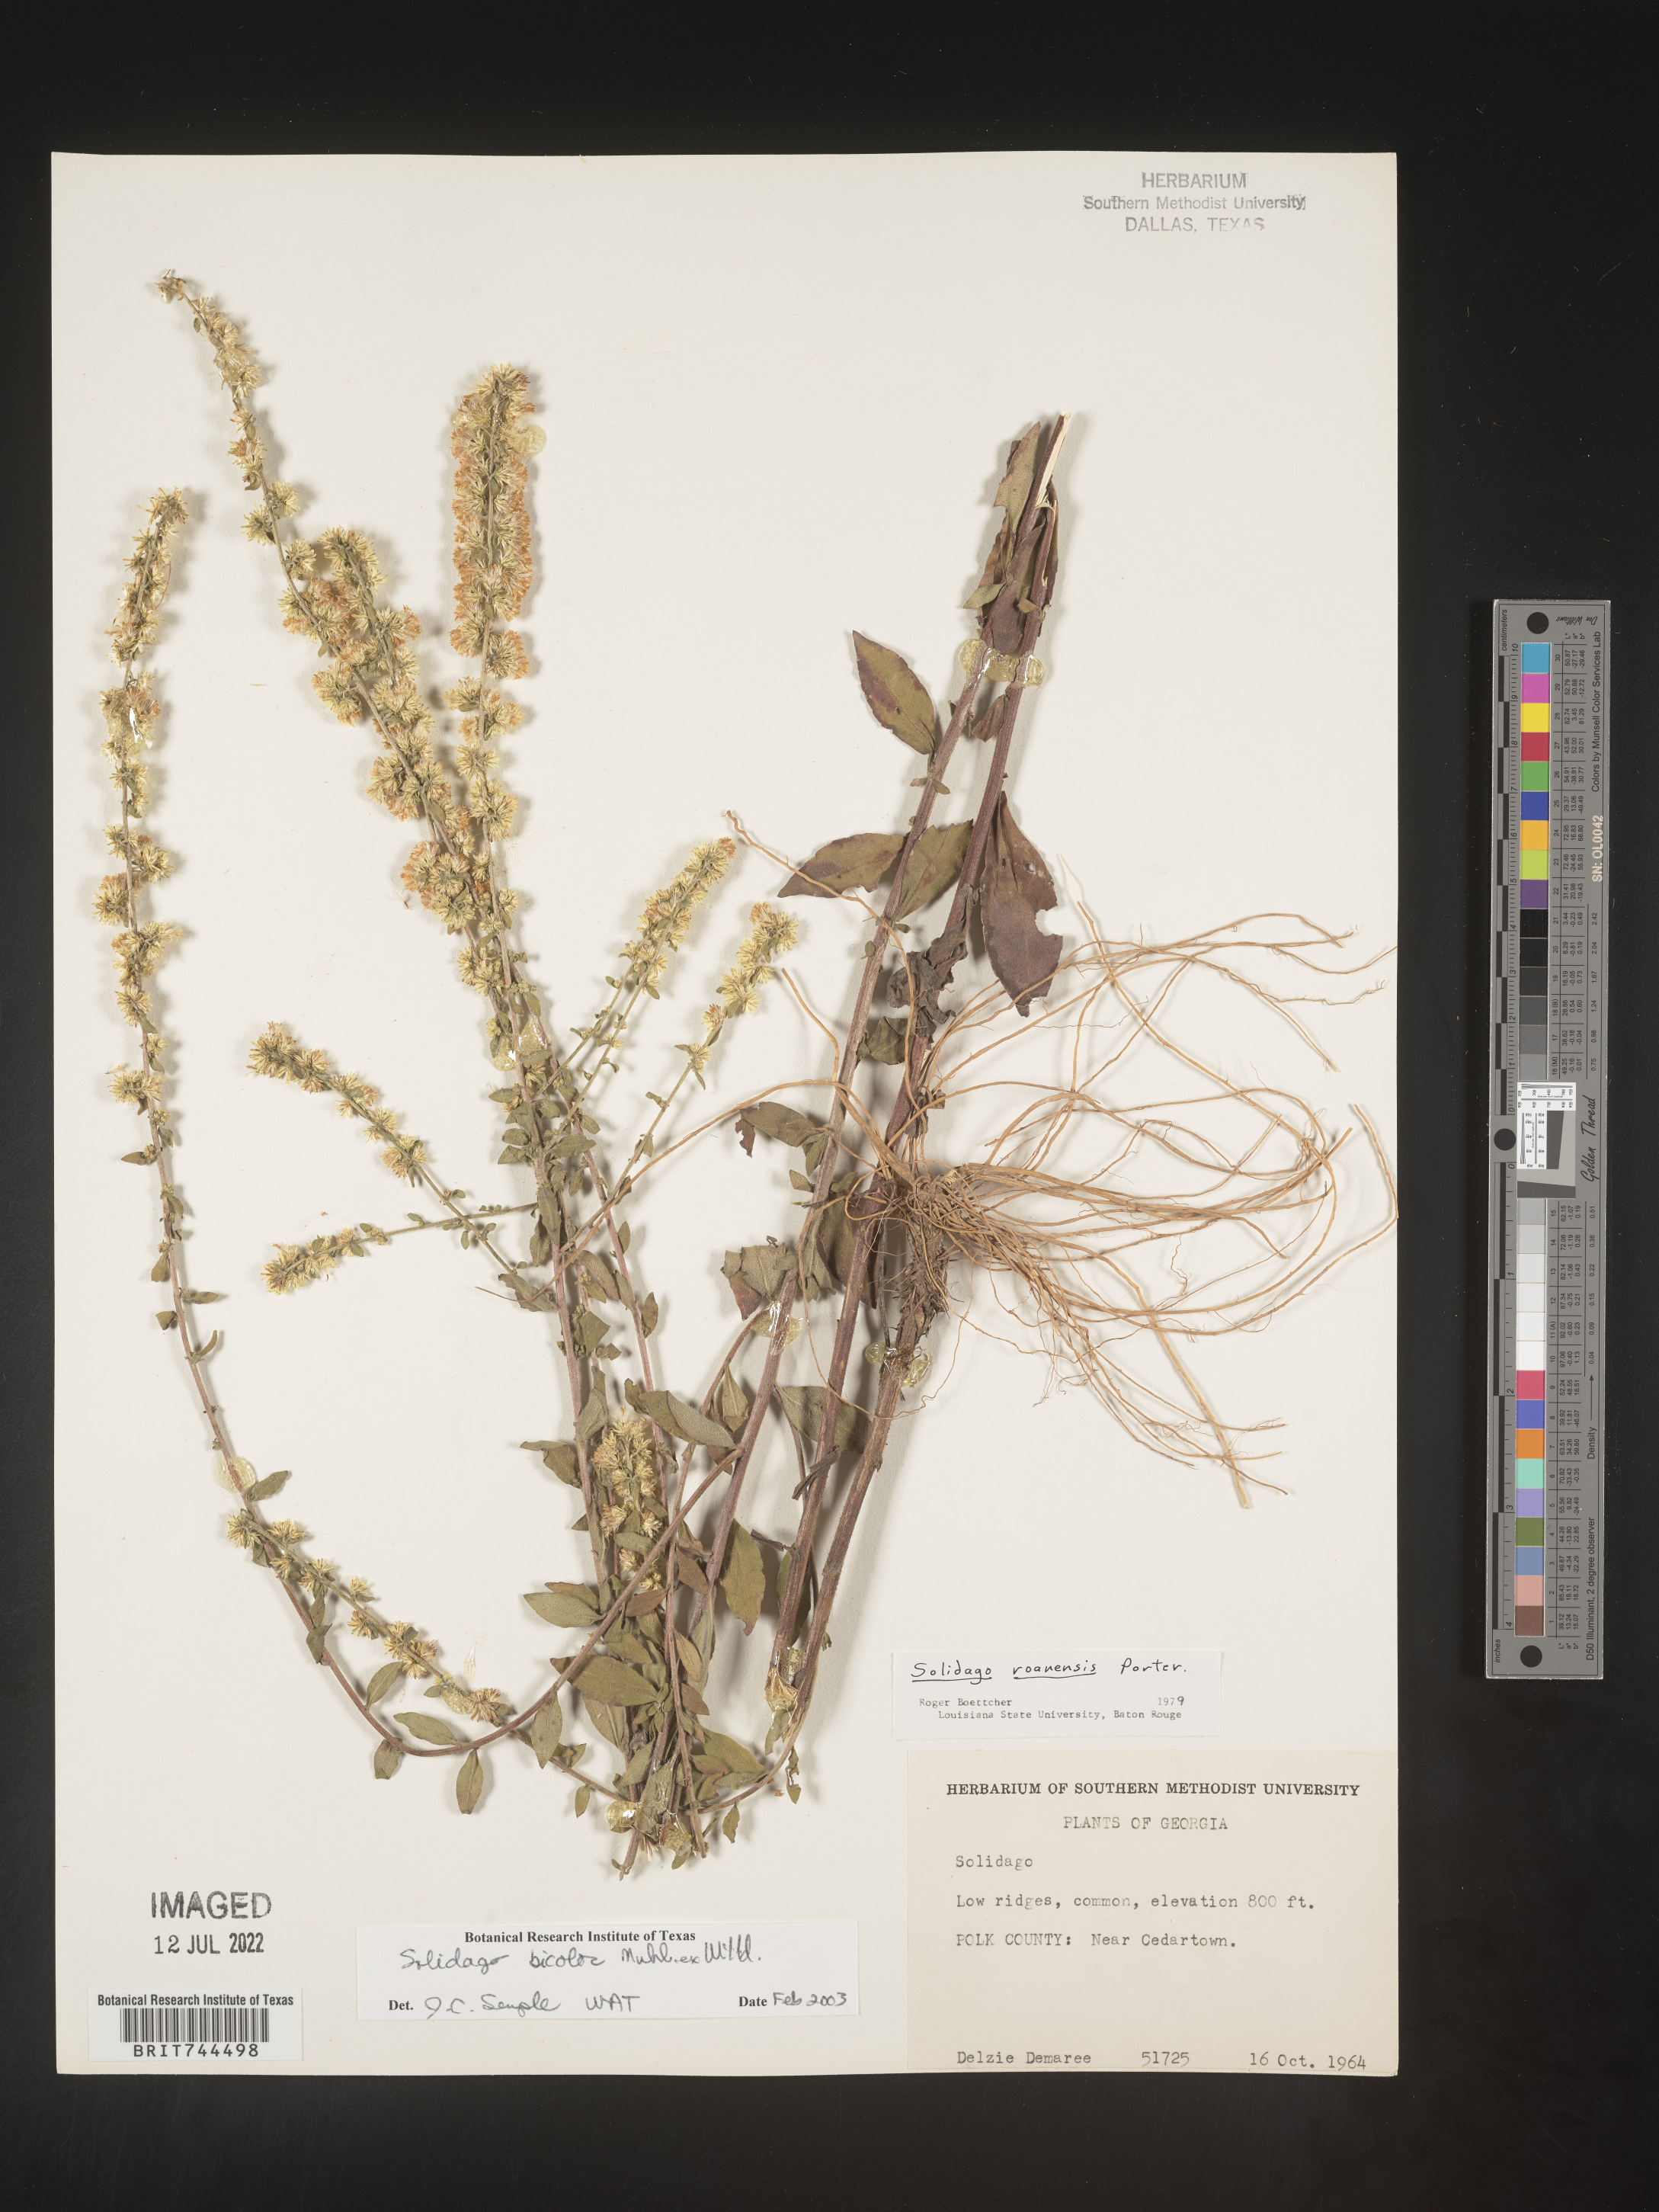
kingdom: Plantae
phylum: Tracheophyta
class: Magnoliopsida
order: Asterales
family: Asteraceae
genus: Solidago
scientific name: Solidago bicolor
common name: Silverrod
